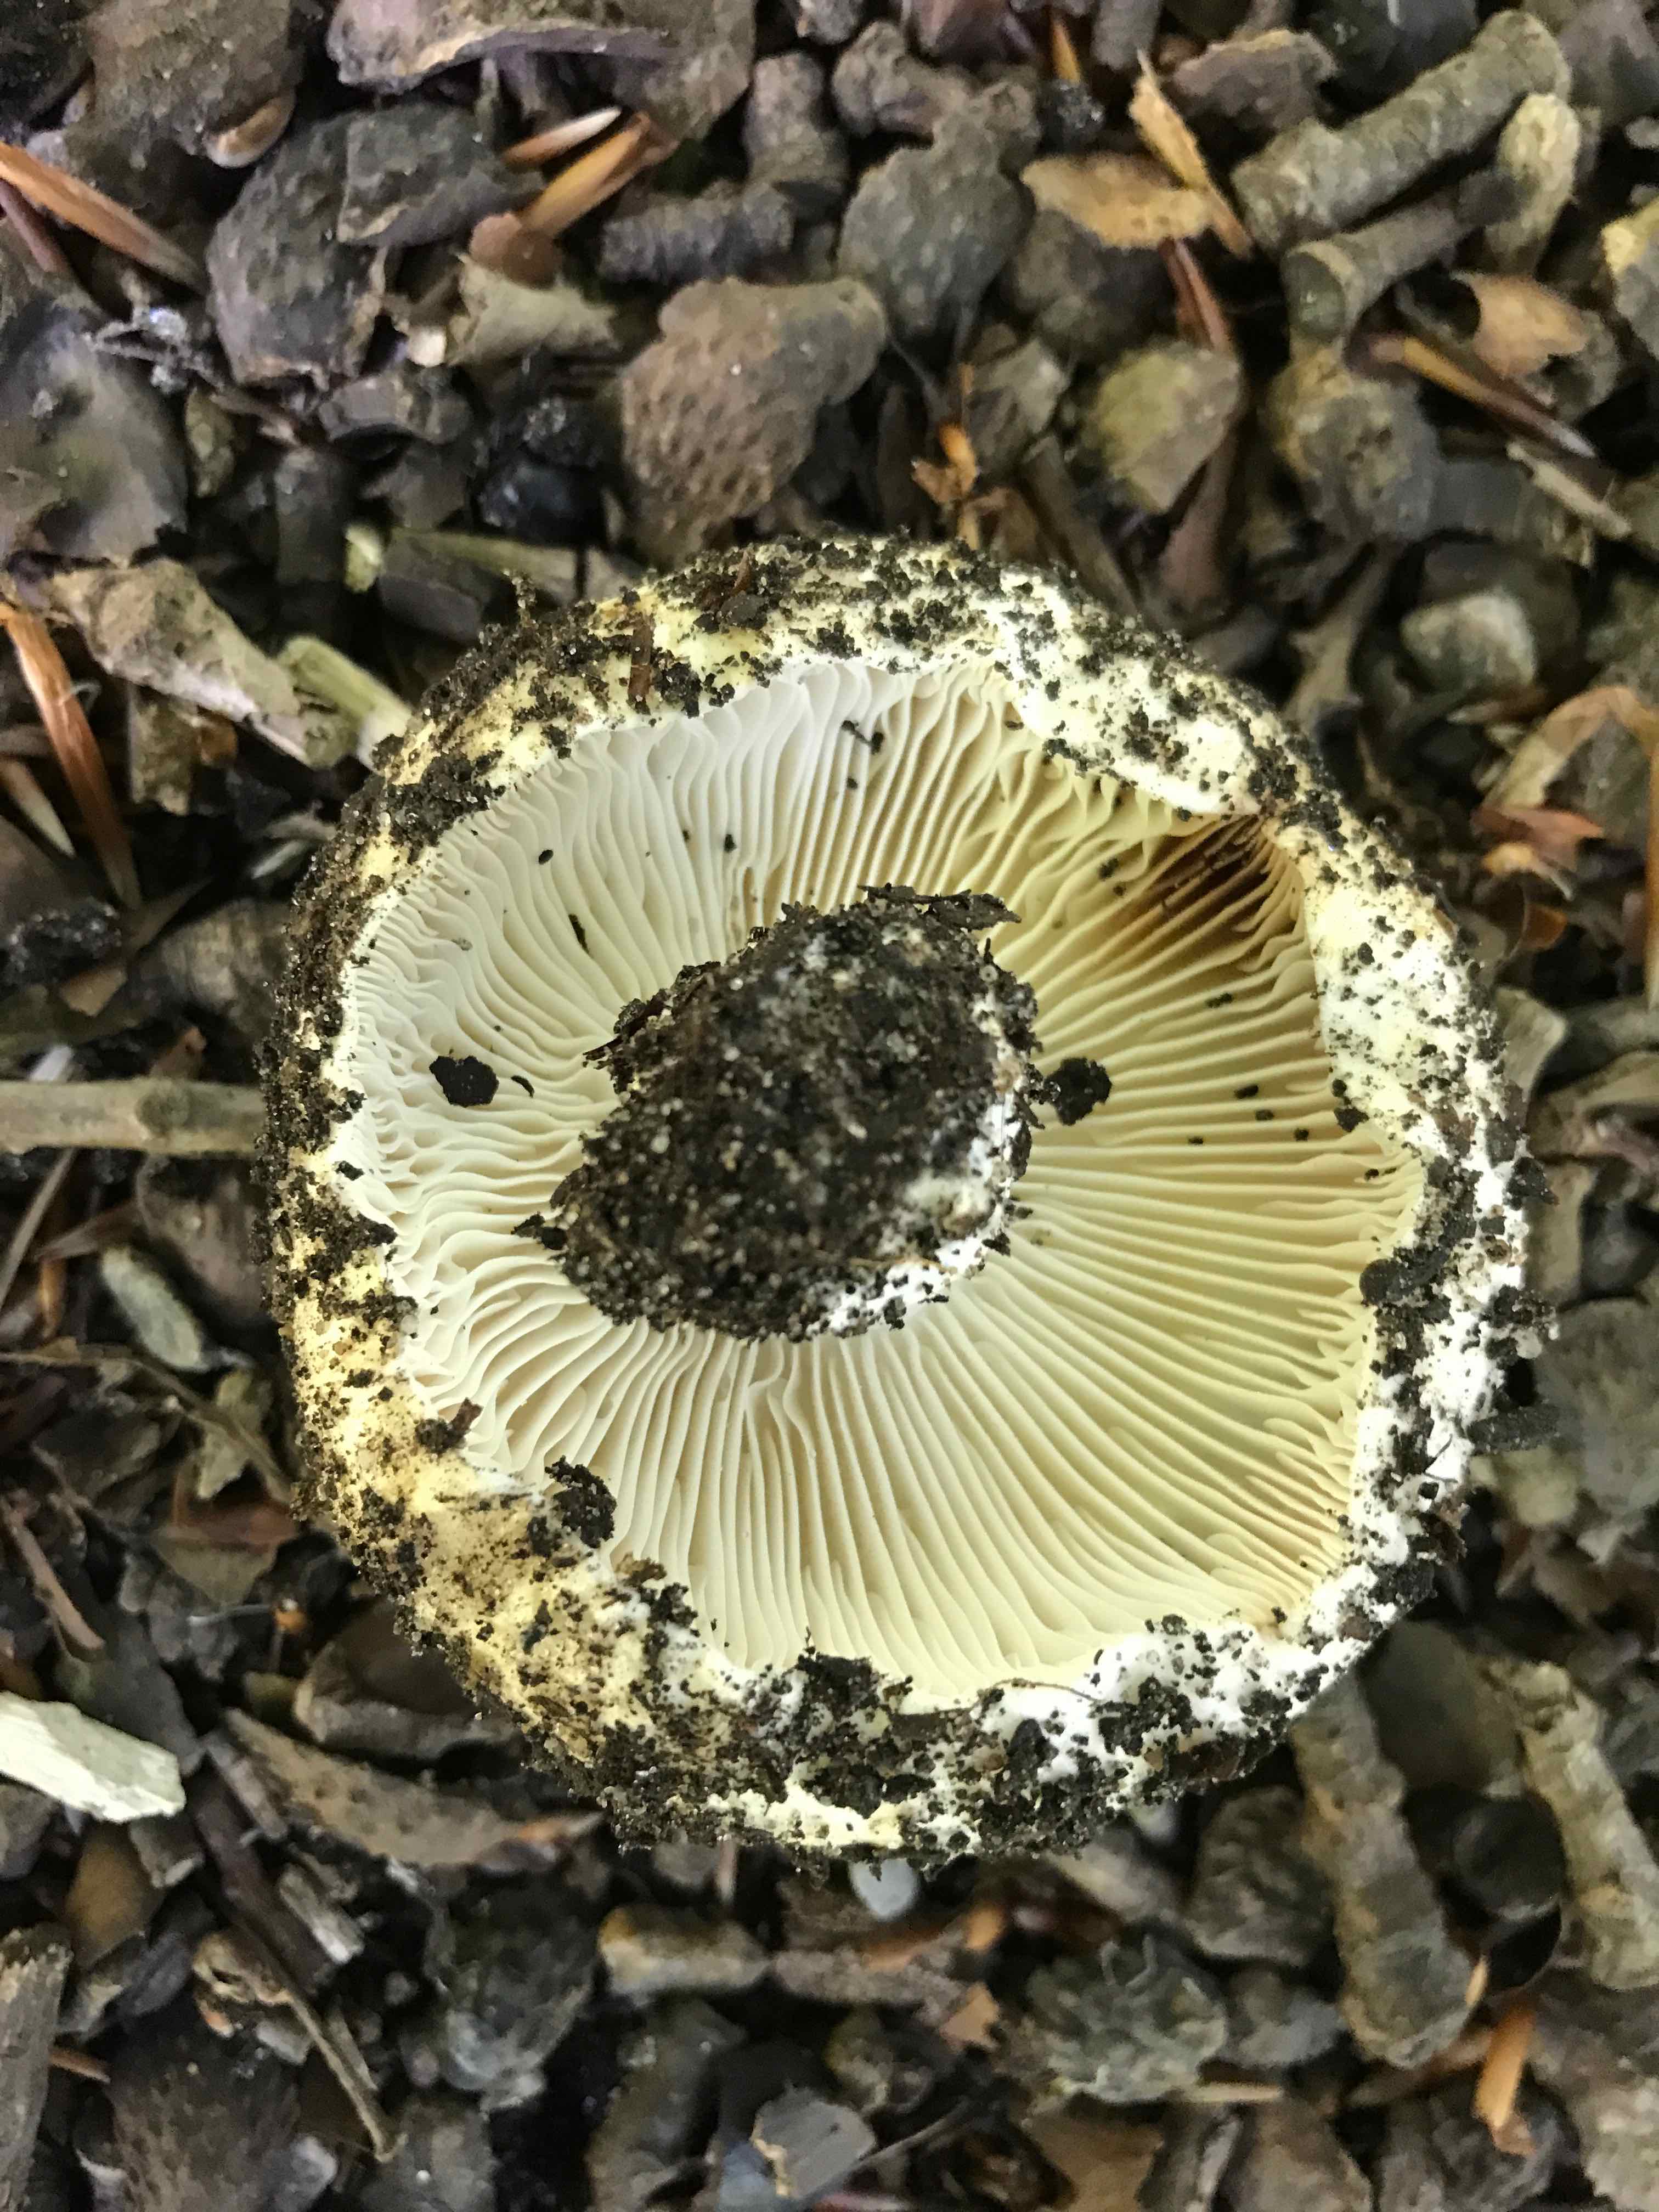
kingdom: Fungi
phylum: Basidiomycota
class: Agaricomycetes
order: Russulales
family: Russulaceae
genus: Russula
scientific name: Russula adusta
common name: sværtende skørhat
